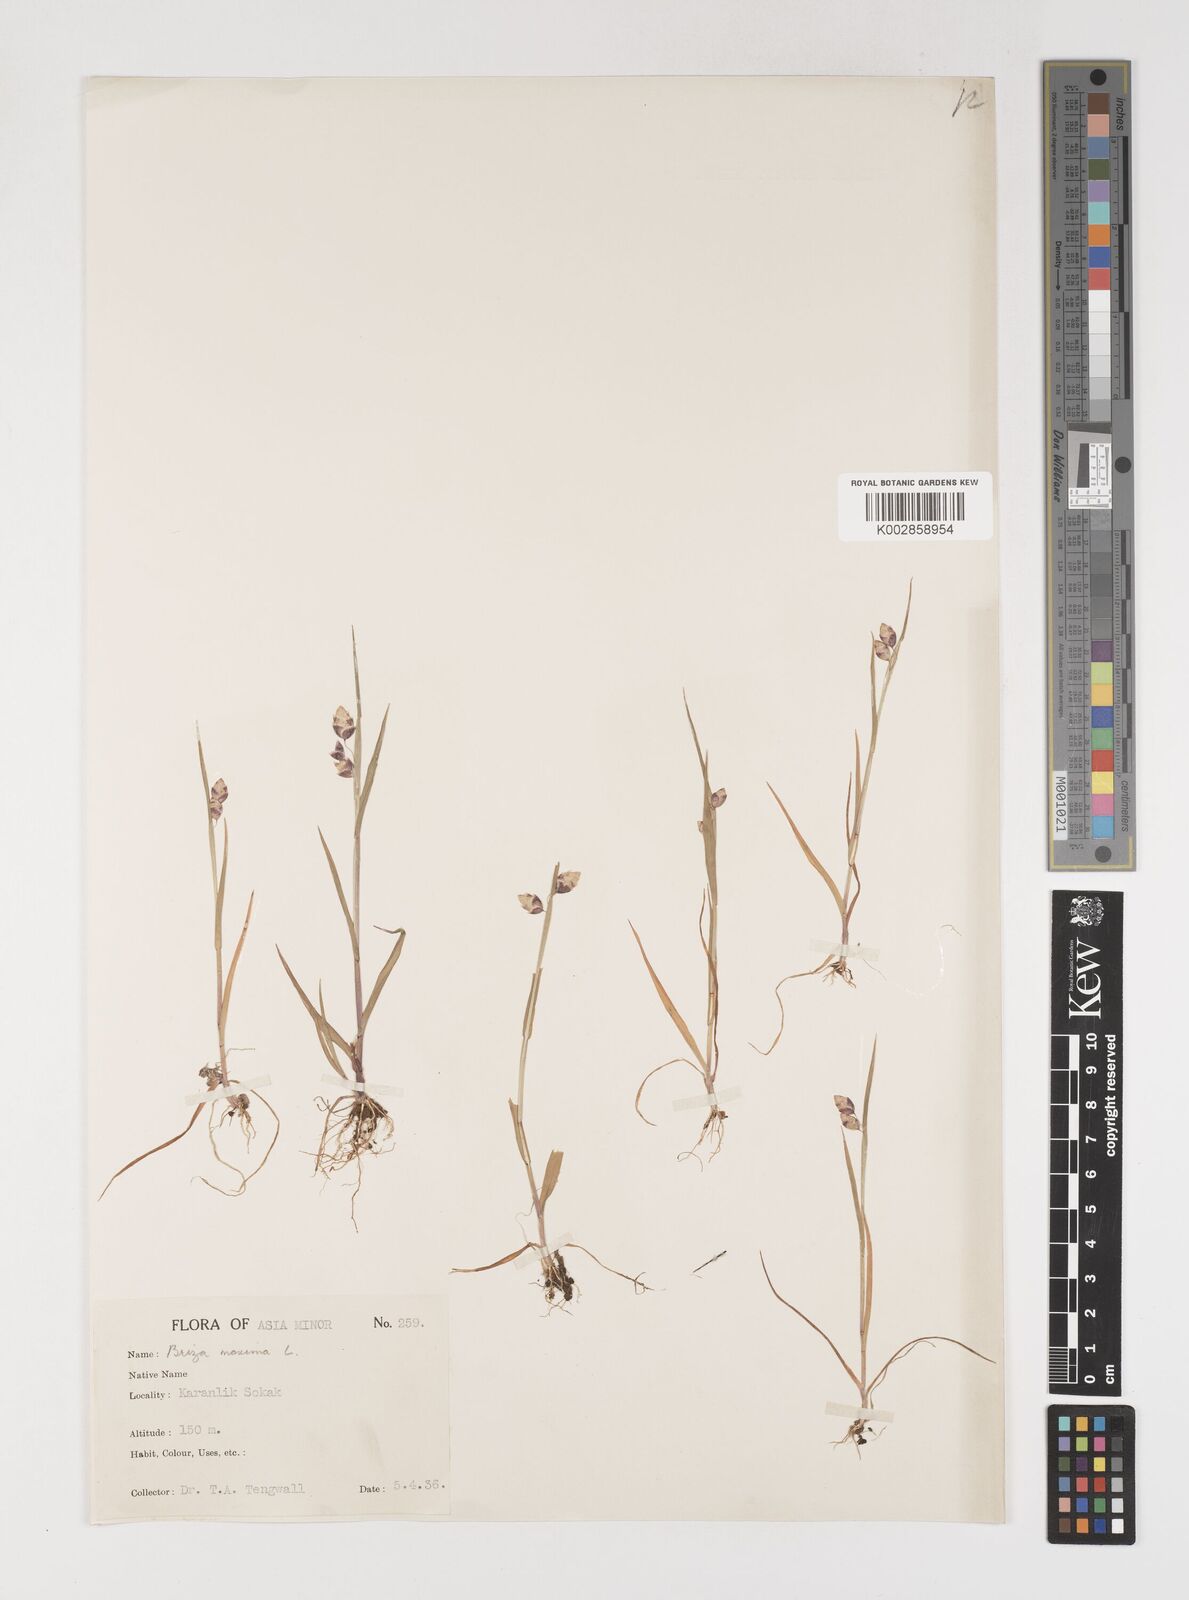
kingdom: Plantae
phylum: Tracheophyta
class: Liliopsida
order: Poales
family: Poaceae
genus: Briza
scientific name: Briza maxima
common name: Big quakinggrass
